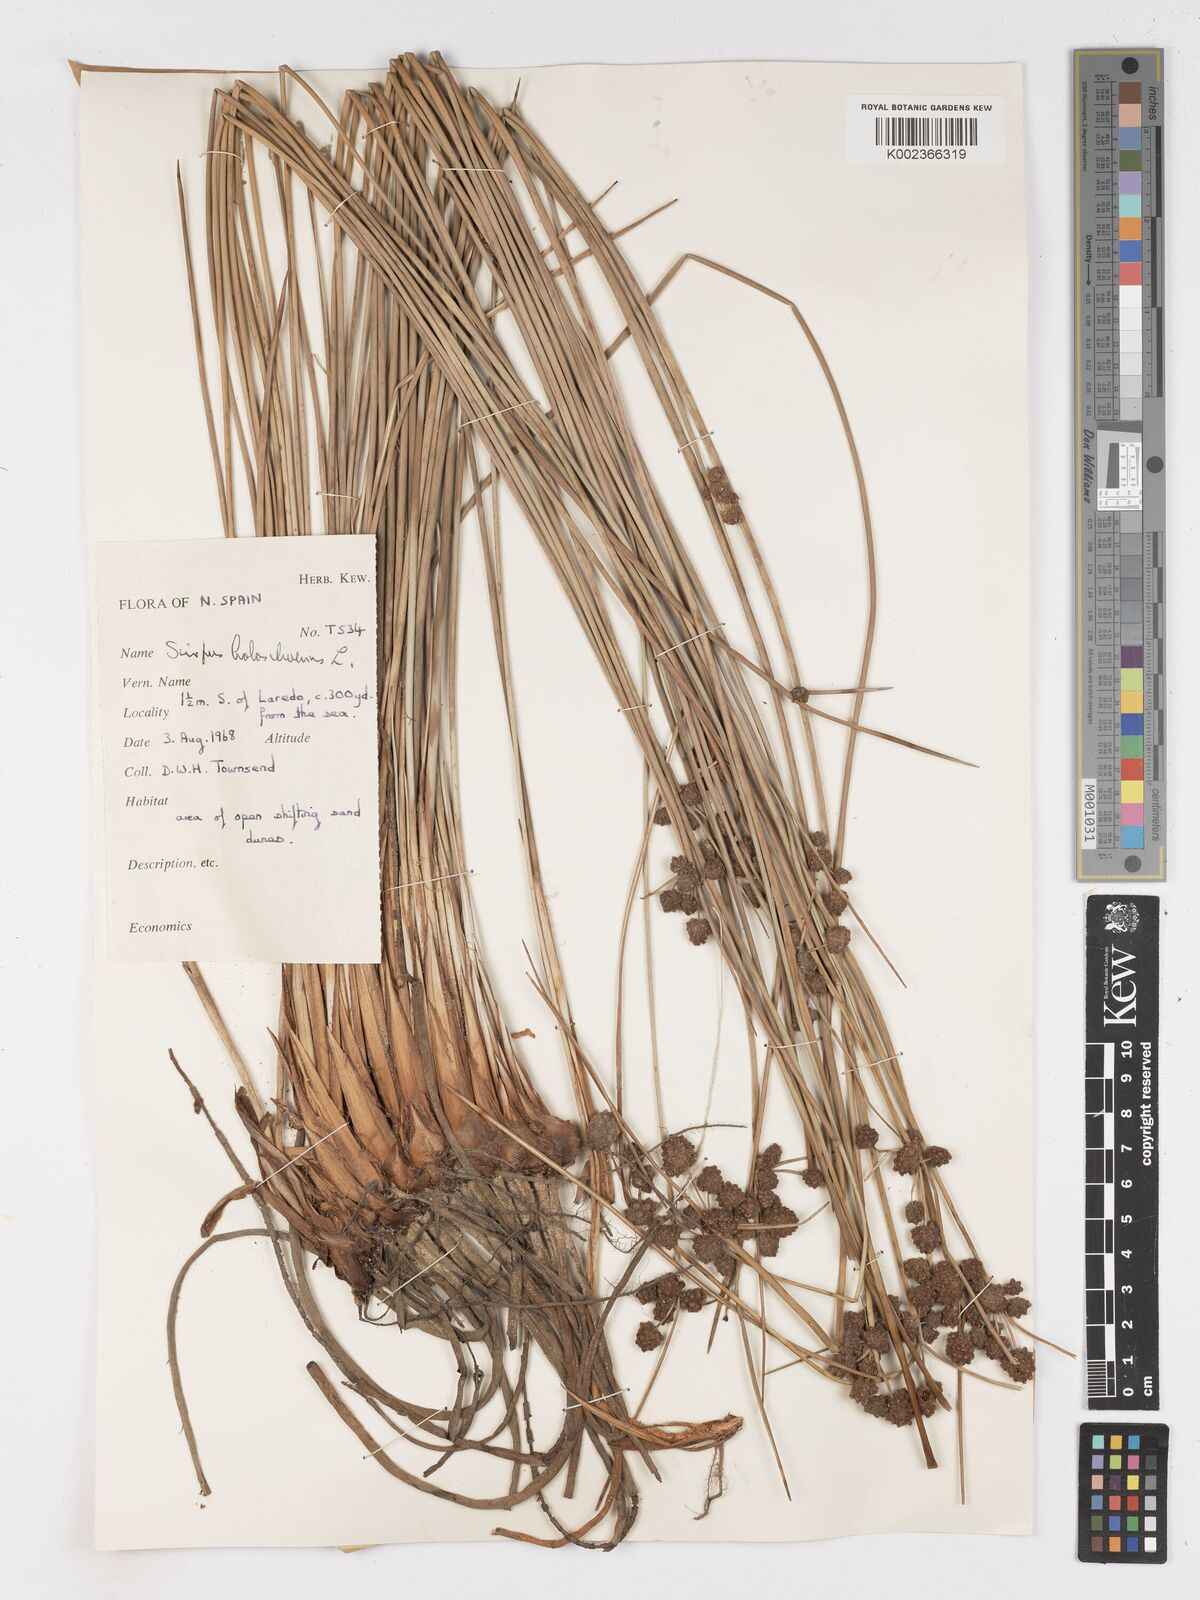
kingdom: Plantae
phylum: Tracheophyta
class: Liliopsida
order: Poales
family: Cyperaceae
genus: Scirpoides
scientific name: Scirpoides holoschoenus
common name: Round-headed club-rush
